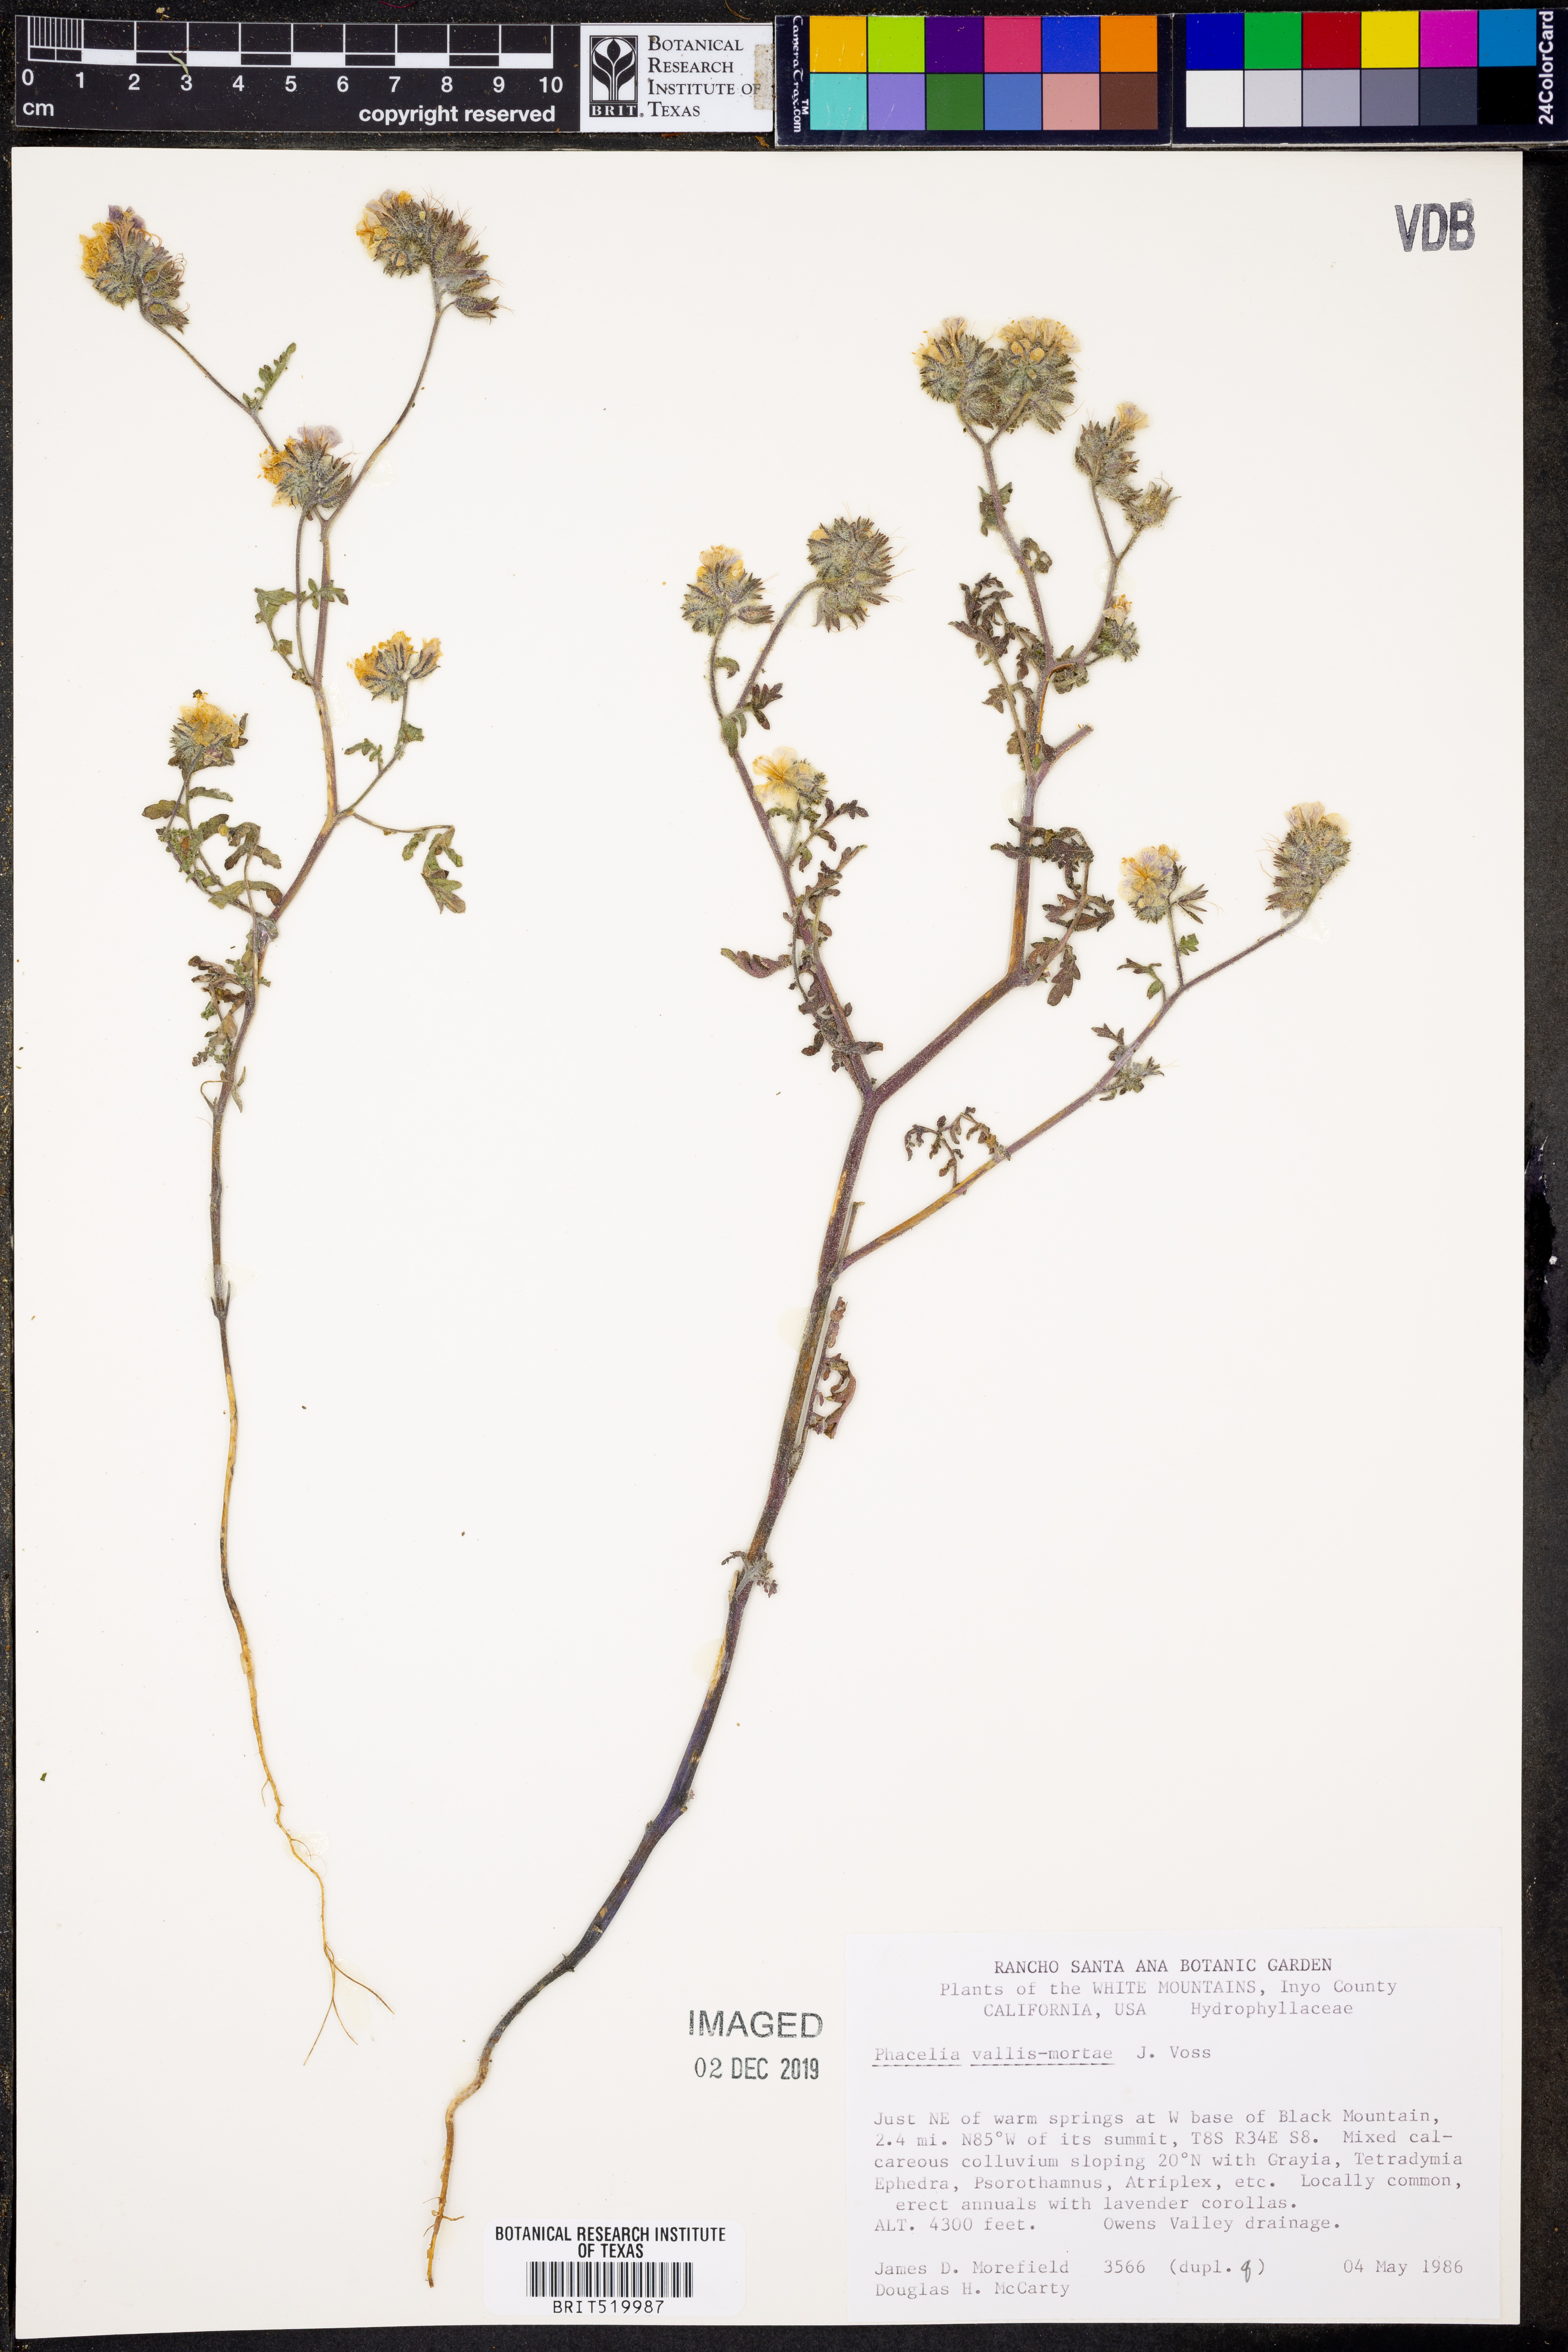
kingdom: Plantae
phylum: Tracheophyta
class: Magnoliopsida
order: Boraginales
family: Hydrophyllaceae
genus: Phacelia
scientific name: Phacelia vallis-mortae
